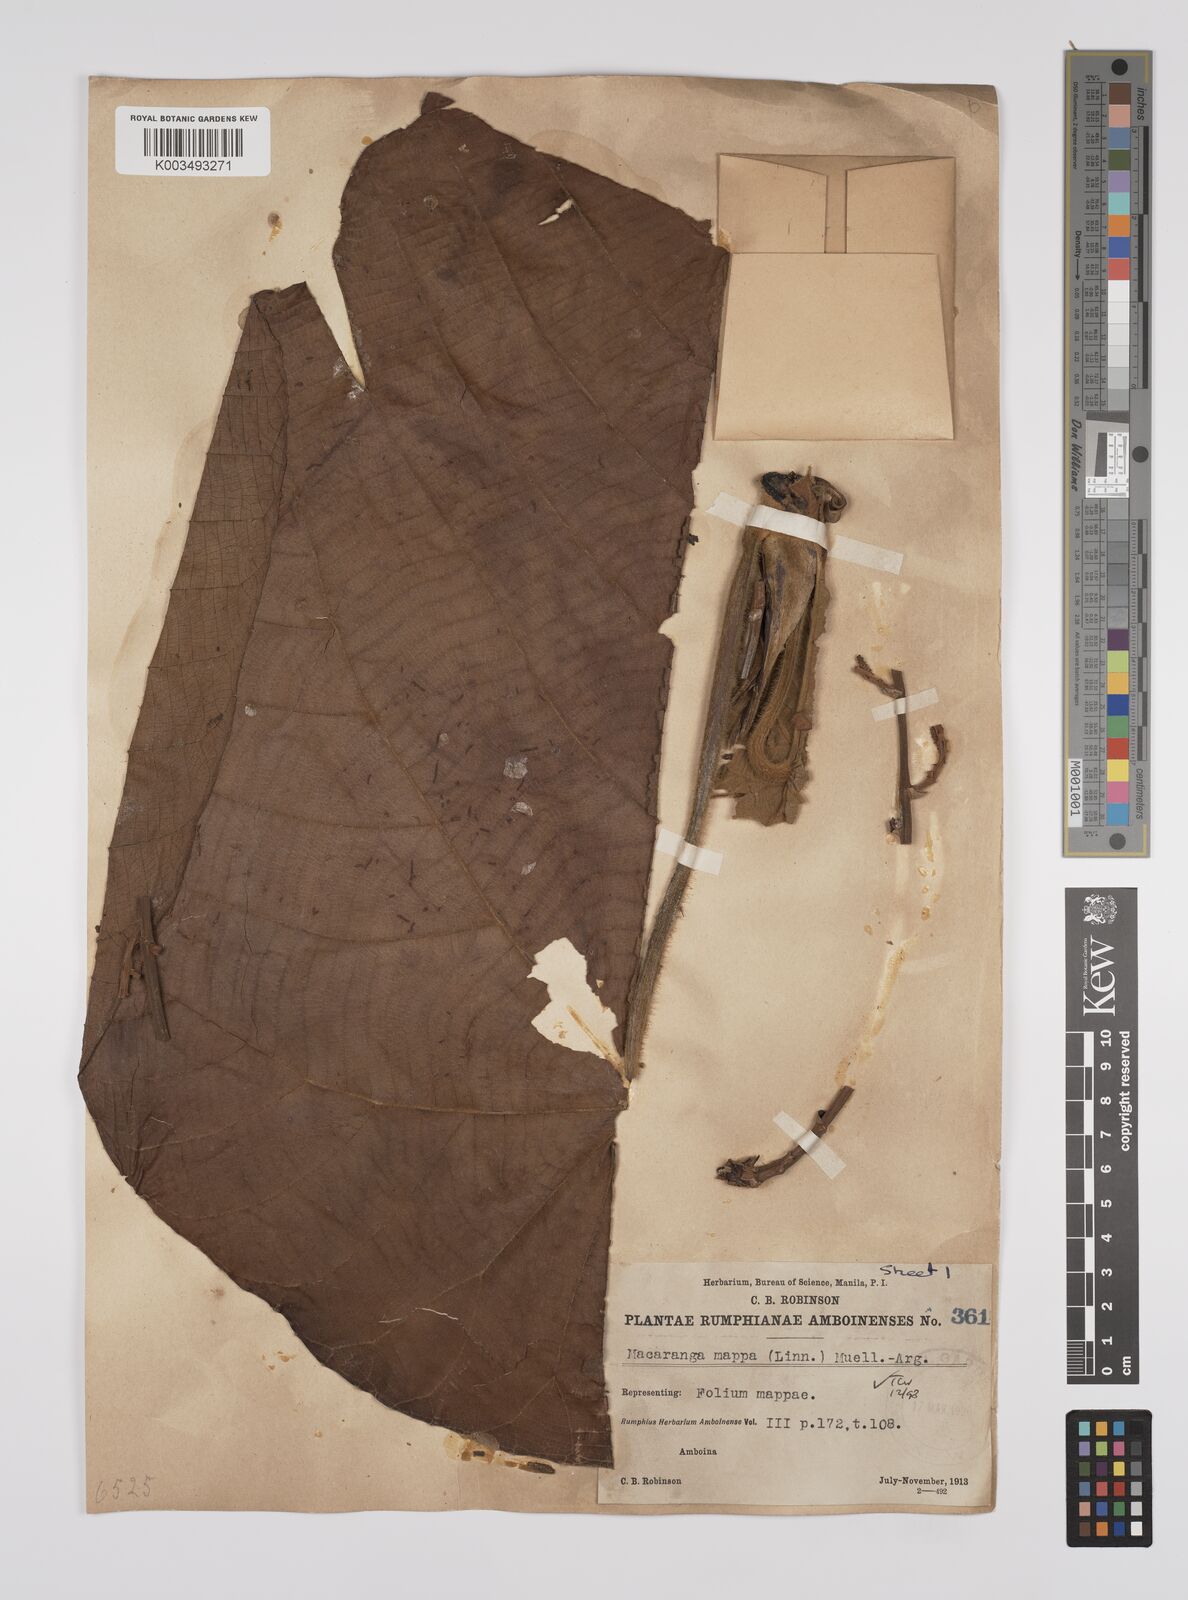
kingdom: Plantae
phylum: Tracheophyta
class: Magnoliopsida
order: Malpighiales
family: Euphorbiaceae
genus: Macaranga
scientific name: Macaranga mappa
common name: Pengua
